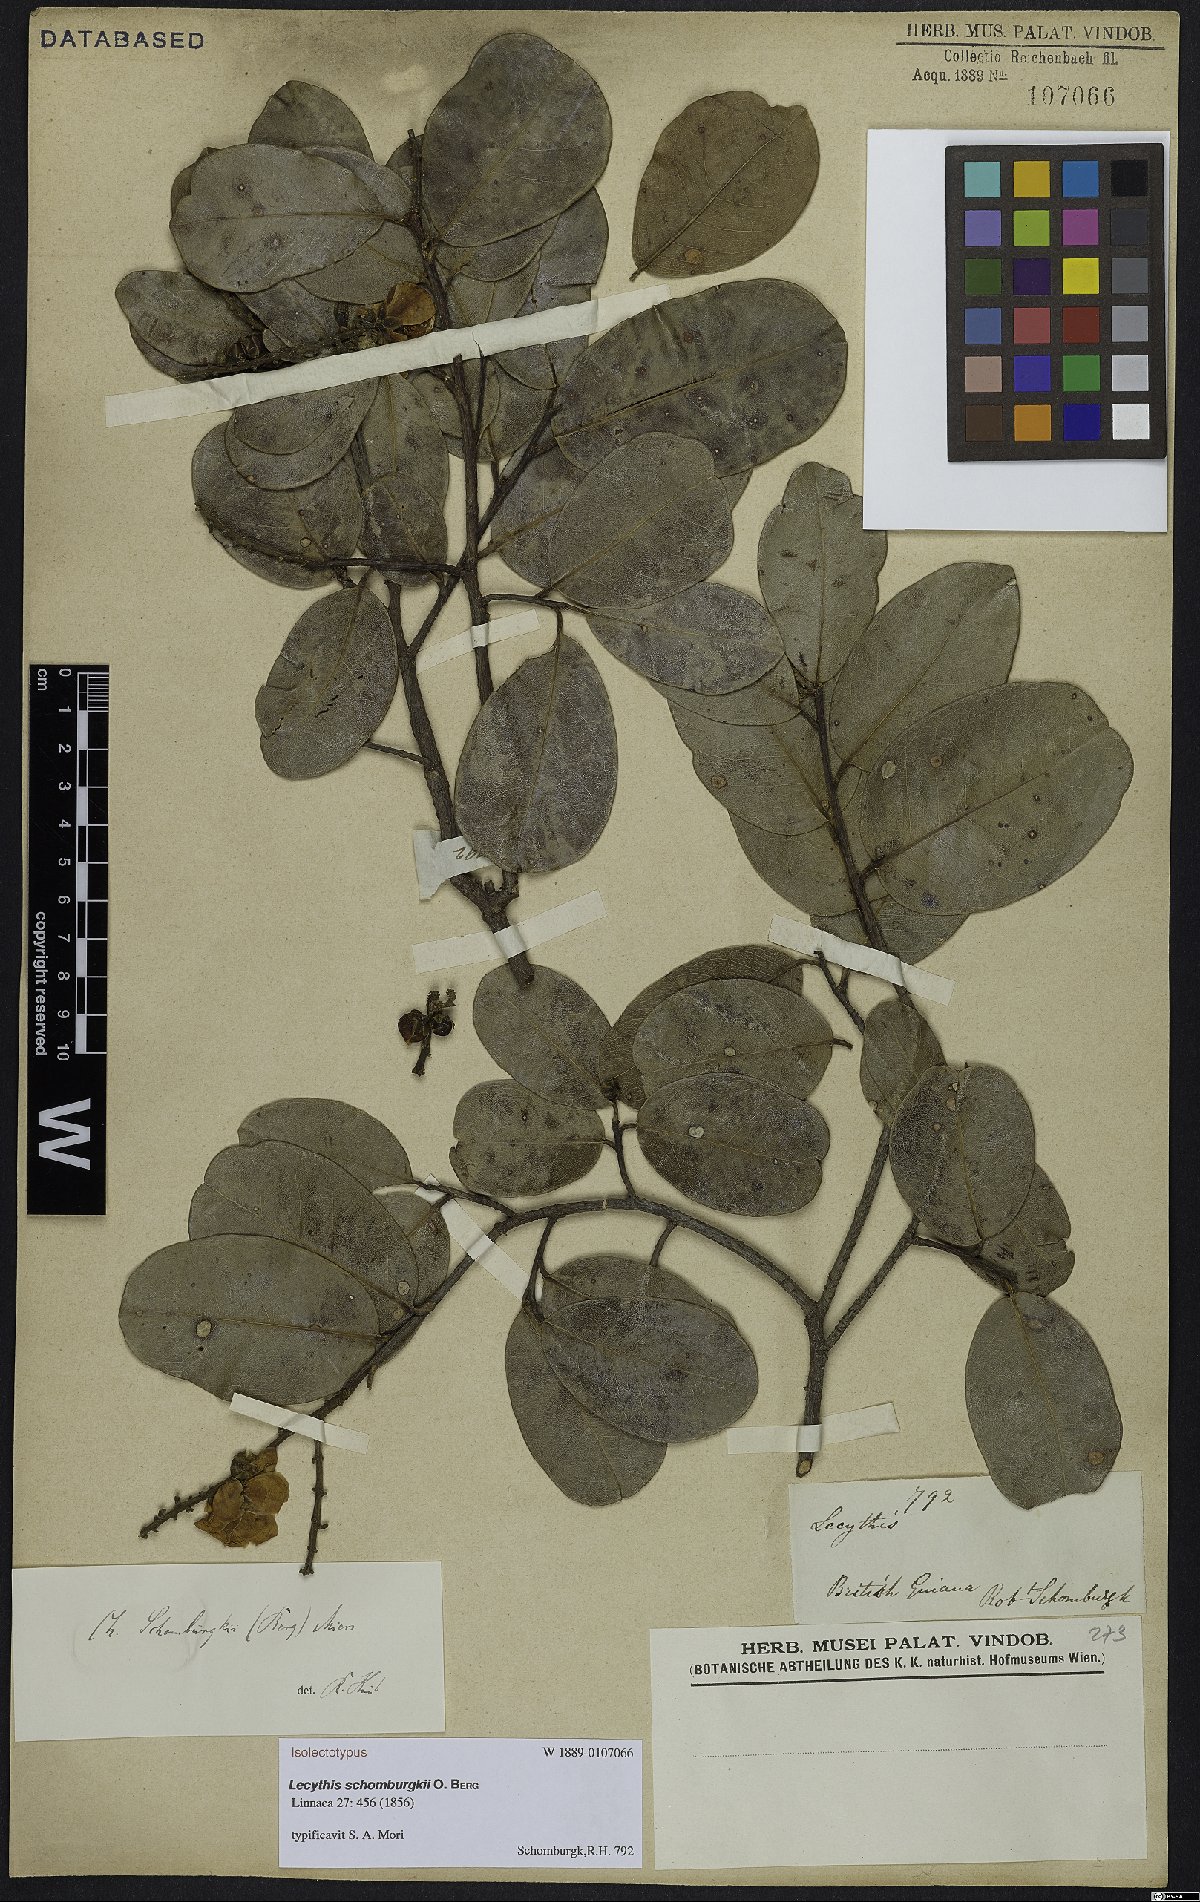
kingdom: Plantae
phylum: Tracheophyta
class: Magnoliopsida
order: Ericales
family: Lecythidaceae
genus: Lecythis
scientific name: Lecythis schomburgkii
